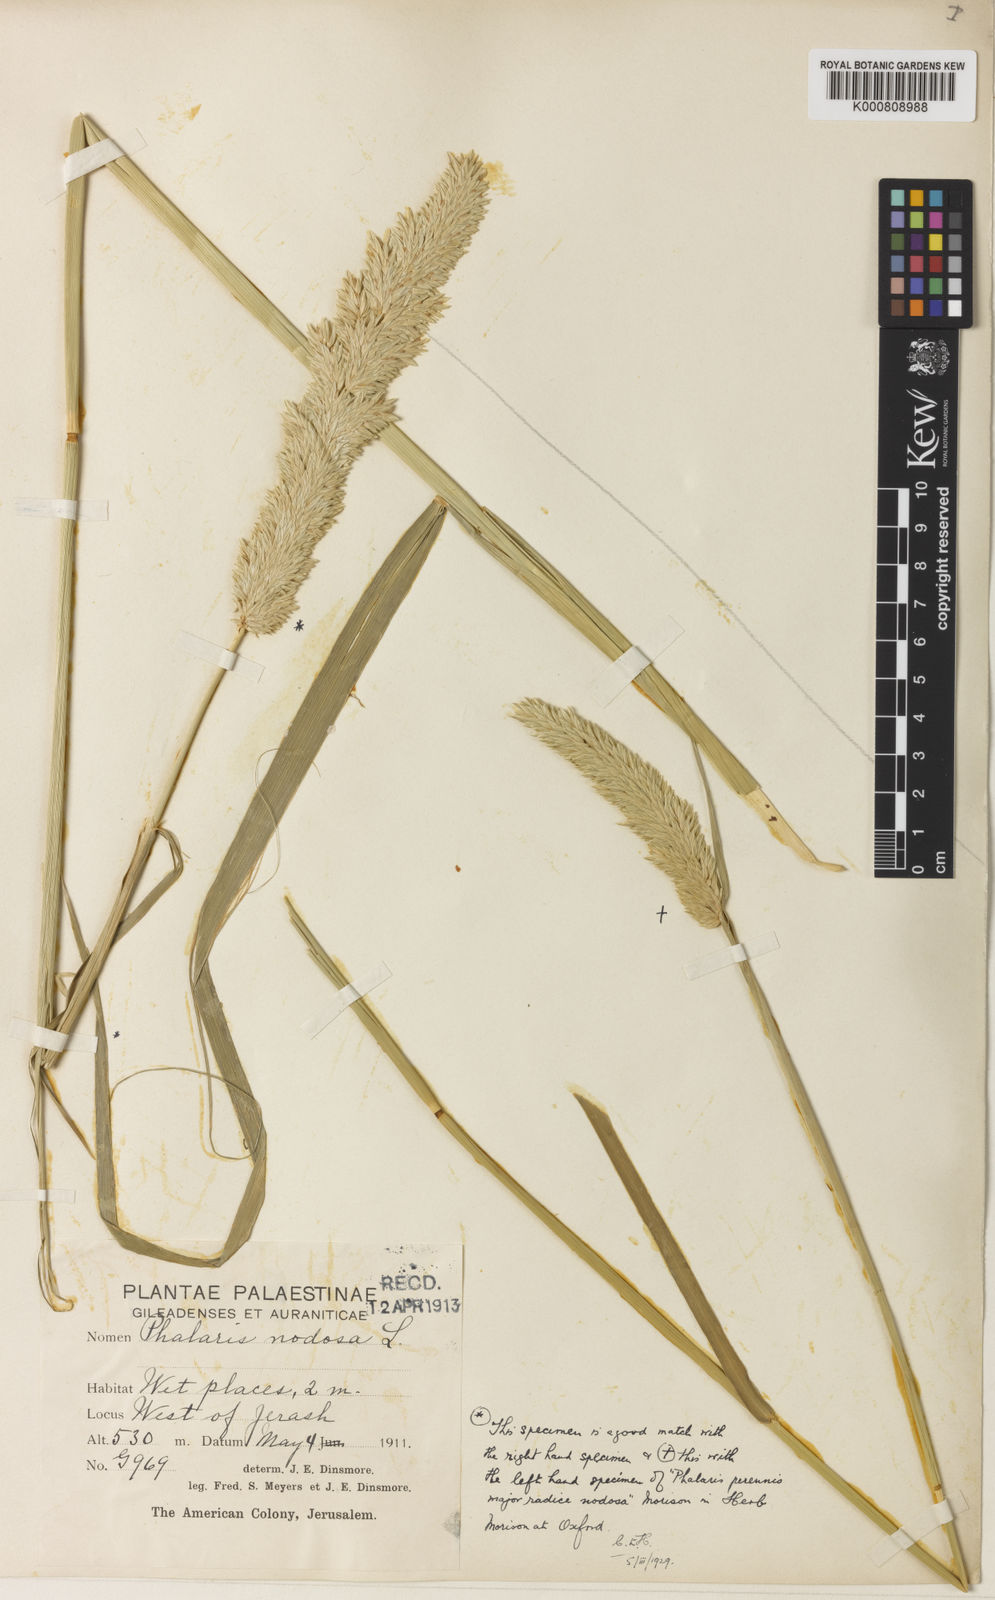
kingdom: Plantae
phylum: Tracheophyta
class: Liliopsida
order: Poales
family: Poaceae
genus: Phalaris
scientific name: Phalaris aquatica
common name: Bulbous canary-grass
